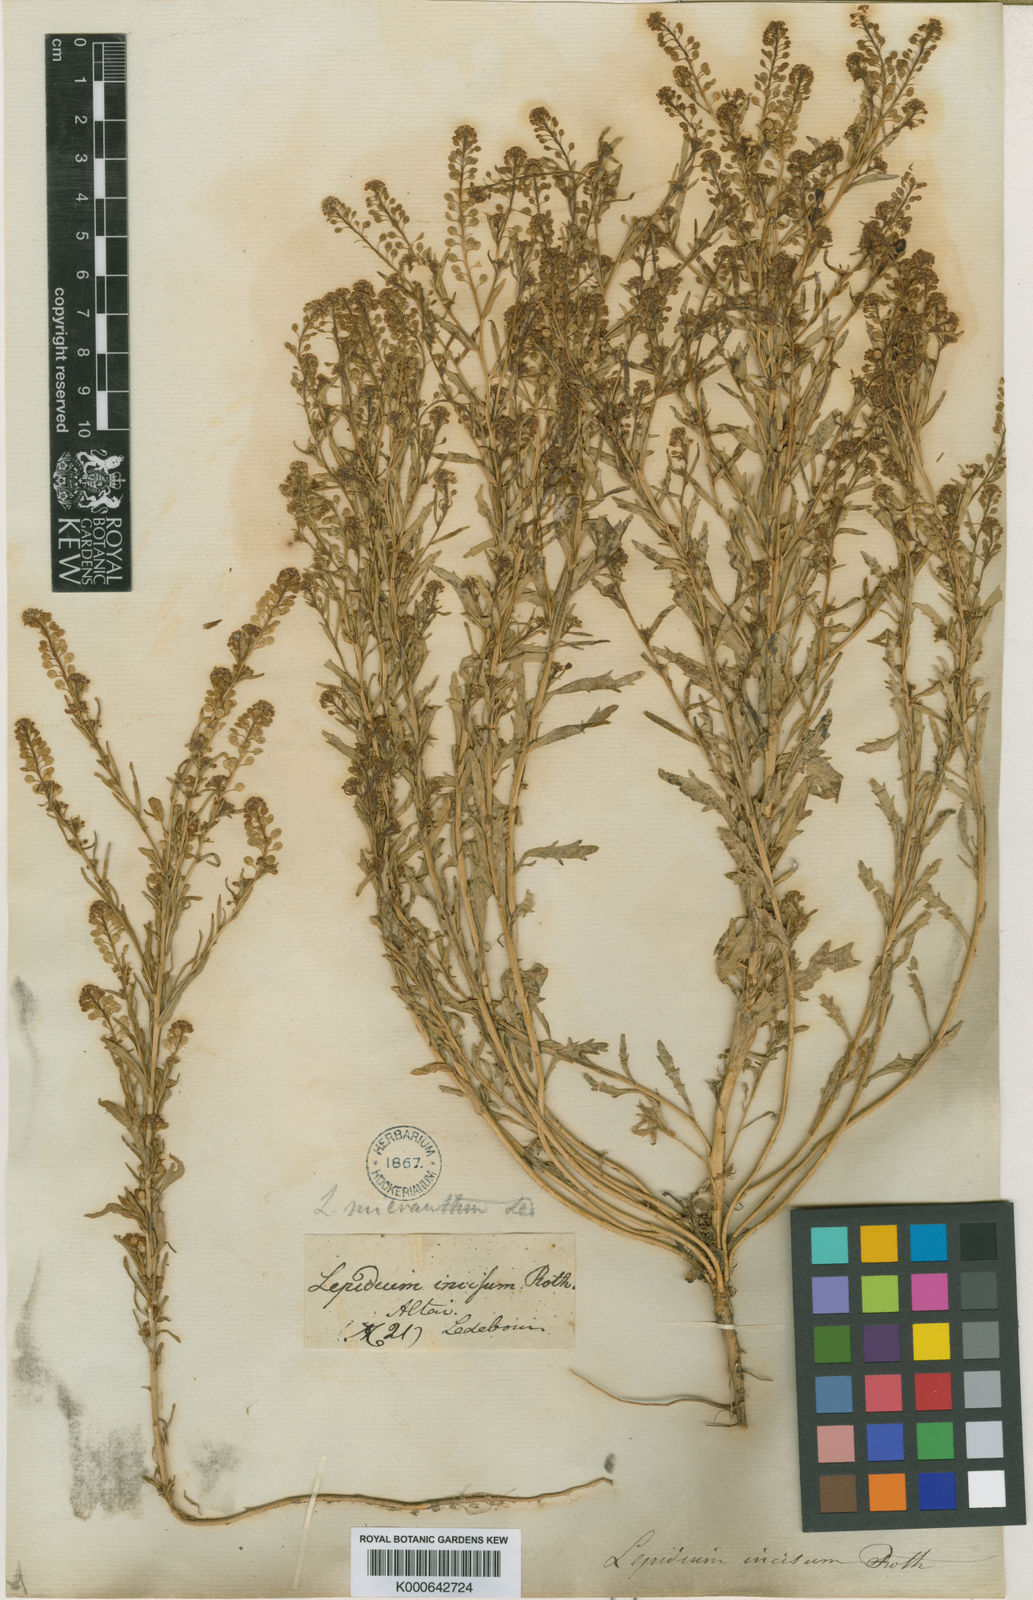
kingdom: Plantae
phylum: Tracheophyta
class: Magnoliopsida
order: Brassicales
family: Brassicaceae
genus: Lepidium
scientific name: Lepidium apetalum
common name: Pepperweed
